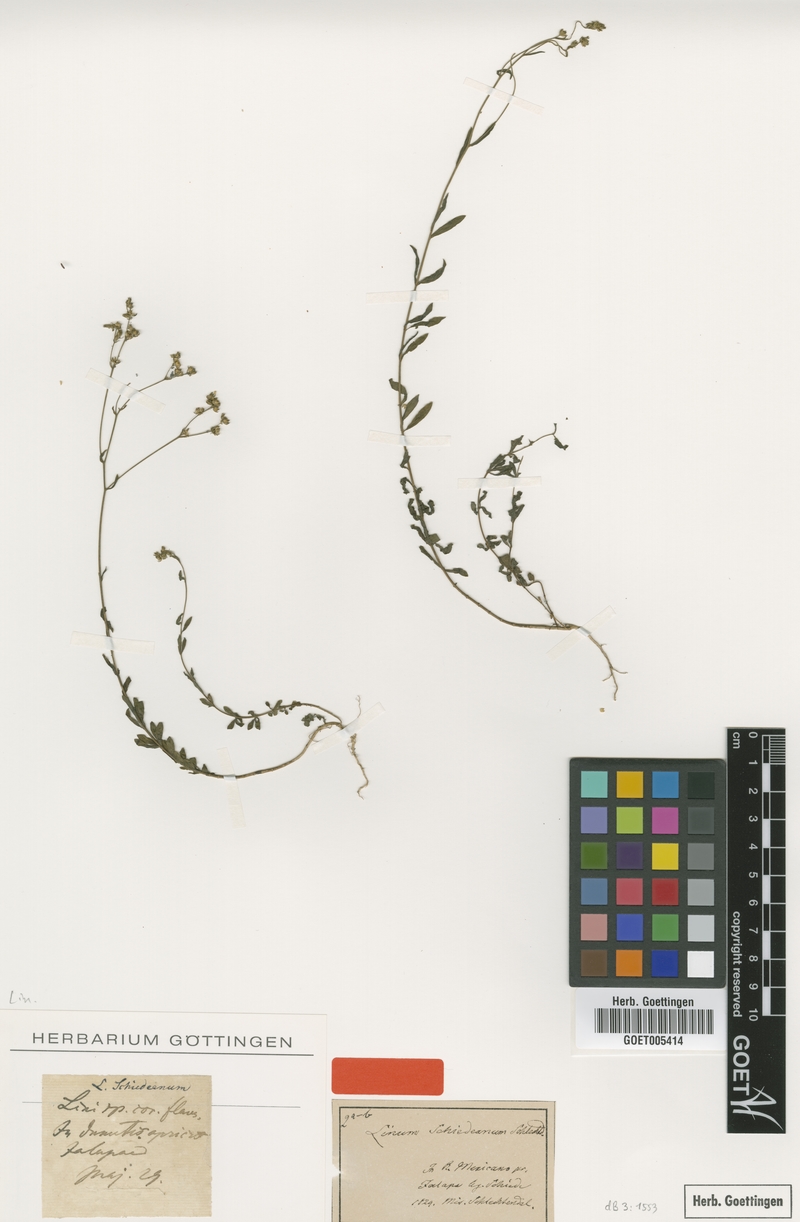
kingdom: Plantae
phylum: Tracheophyta
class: Magnoliopsida
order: Malpighiales
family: Linaceae
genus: Linum
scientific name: Linum schiedeanum
